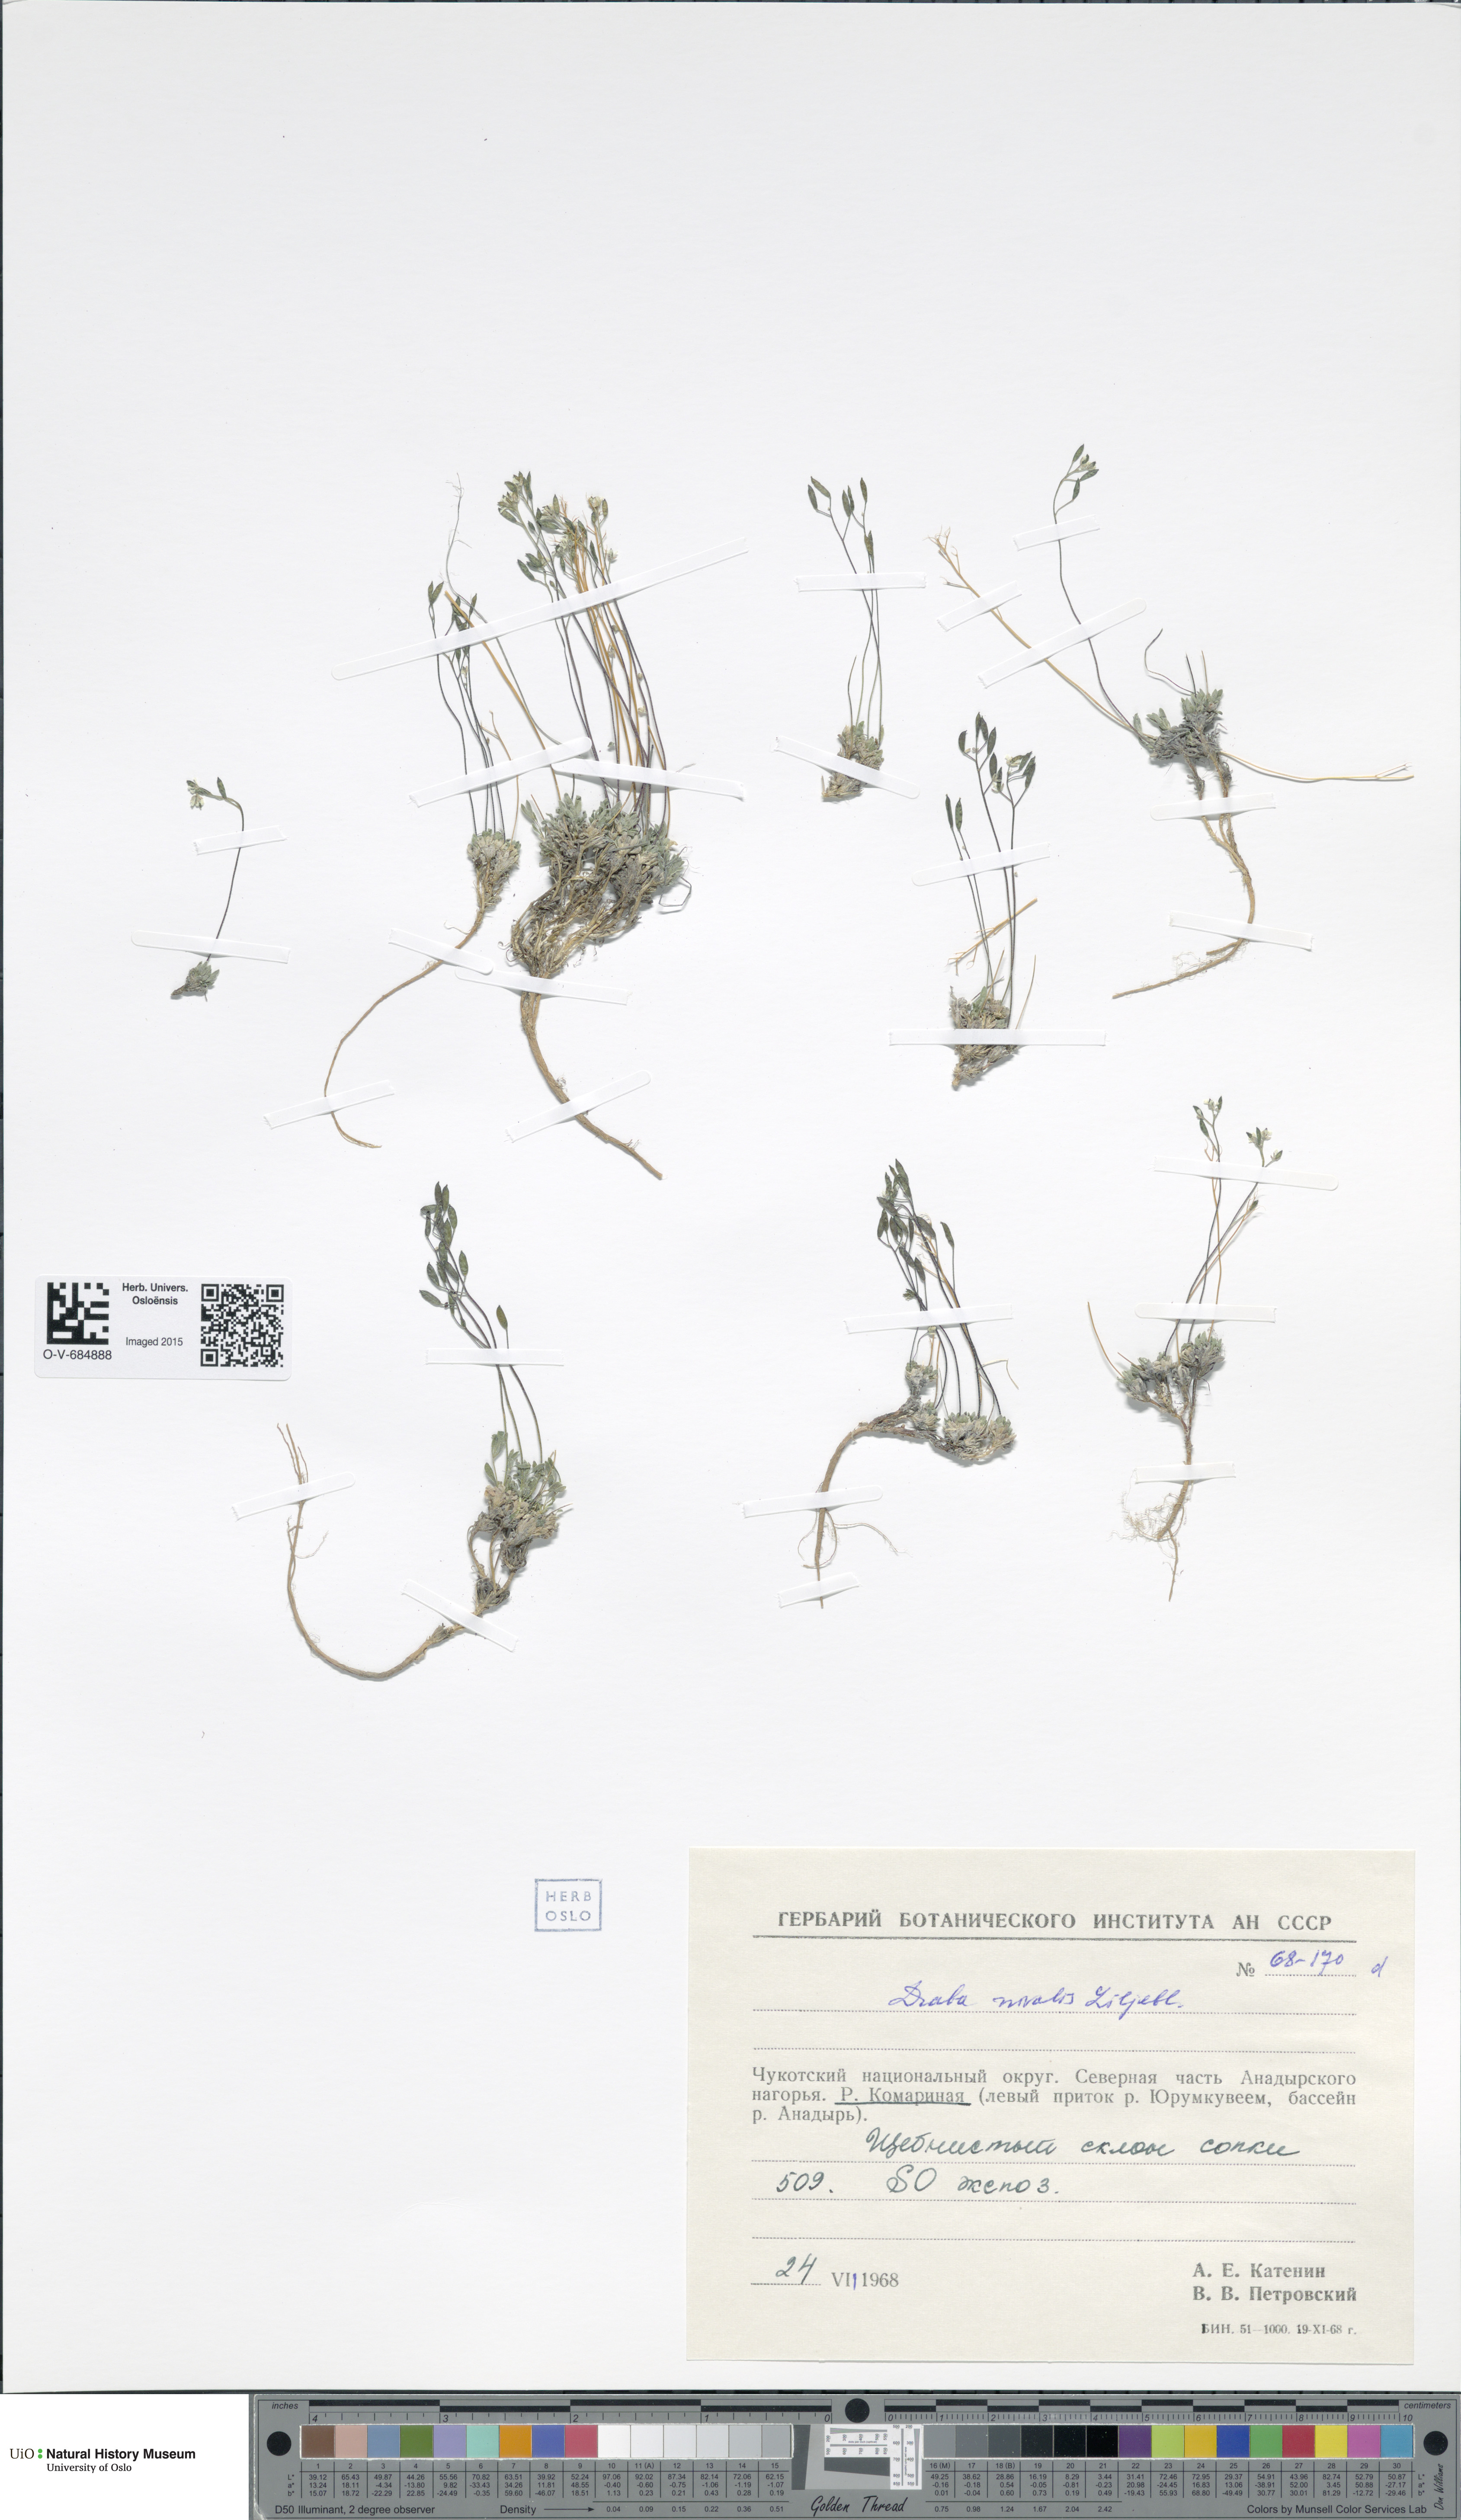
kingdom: Plantae
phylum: Tracheophyta
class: Magnoliopsida
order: Brassicales
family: Brassicaceae
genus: Draba
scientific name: Draba nivalis
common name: Snow draba
